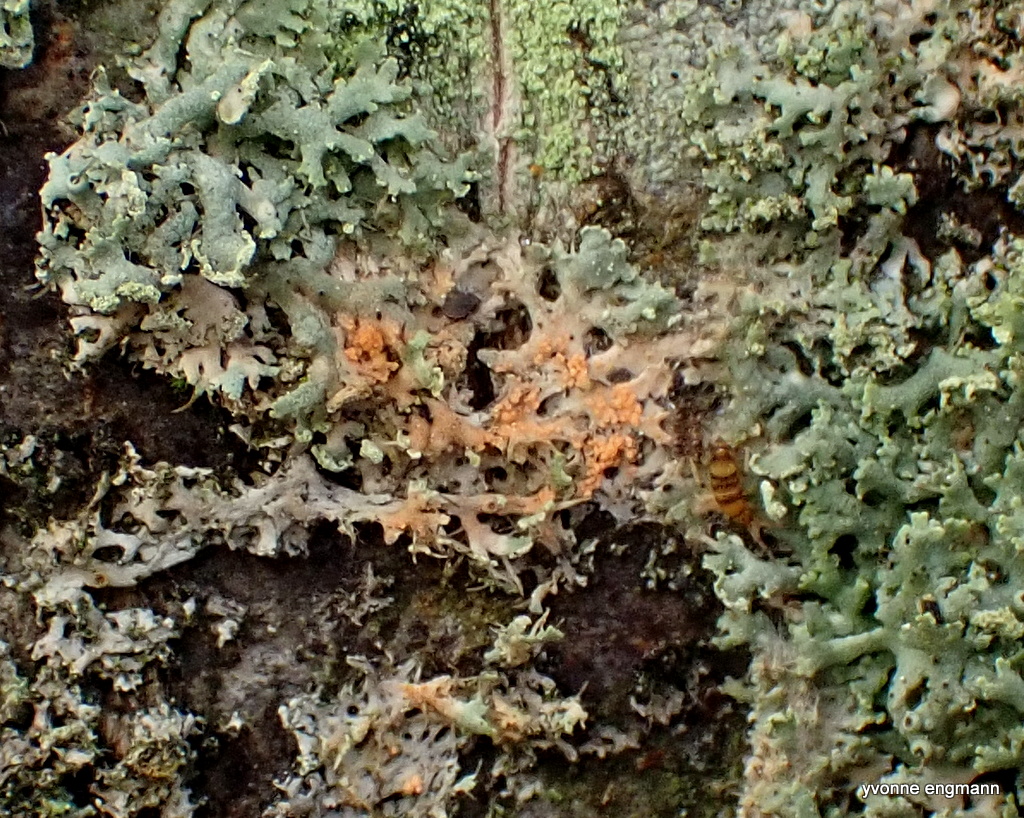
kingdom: Fungi
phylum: Basidiomycota
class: Agaricomycetes
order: Corticiales
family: Corticiaceae
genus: Erythricium
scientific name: Erythricium aurantiacum
